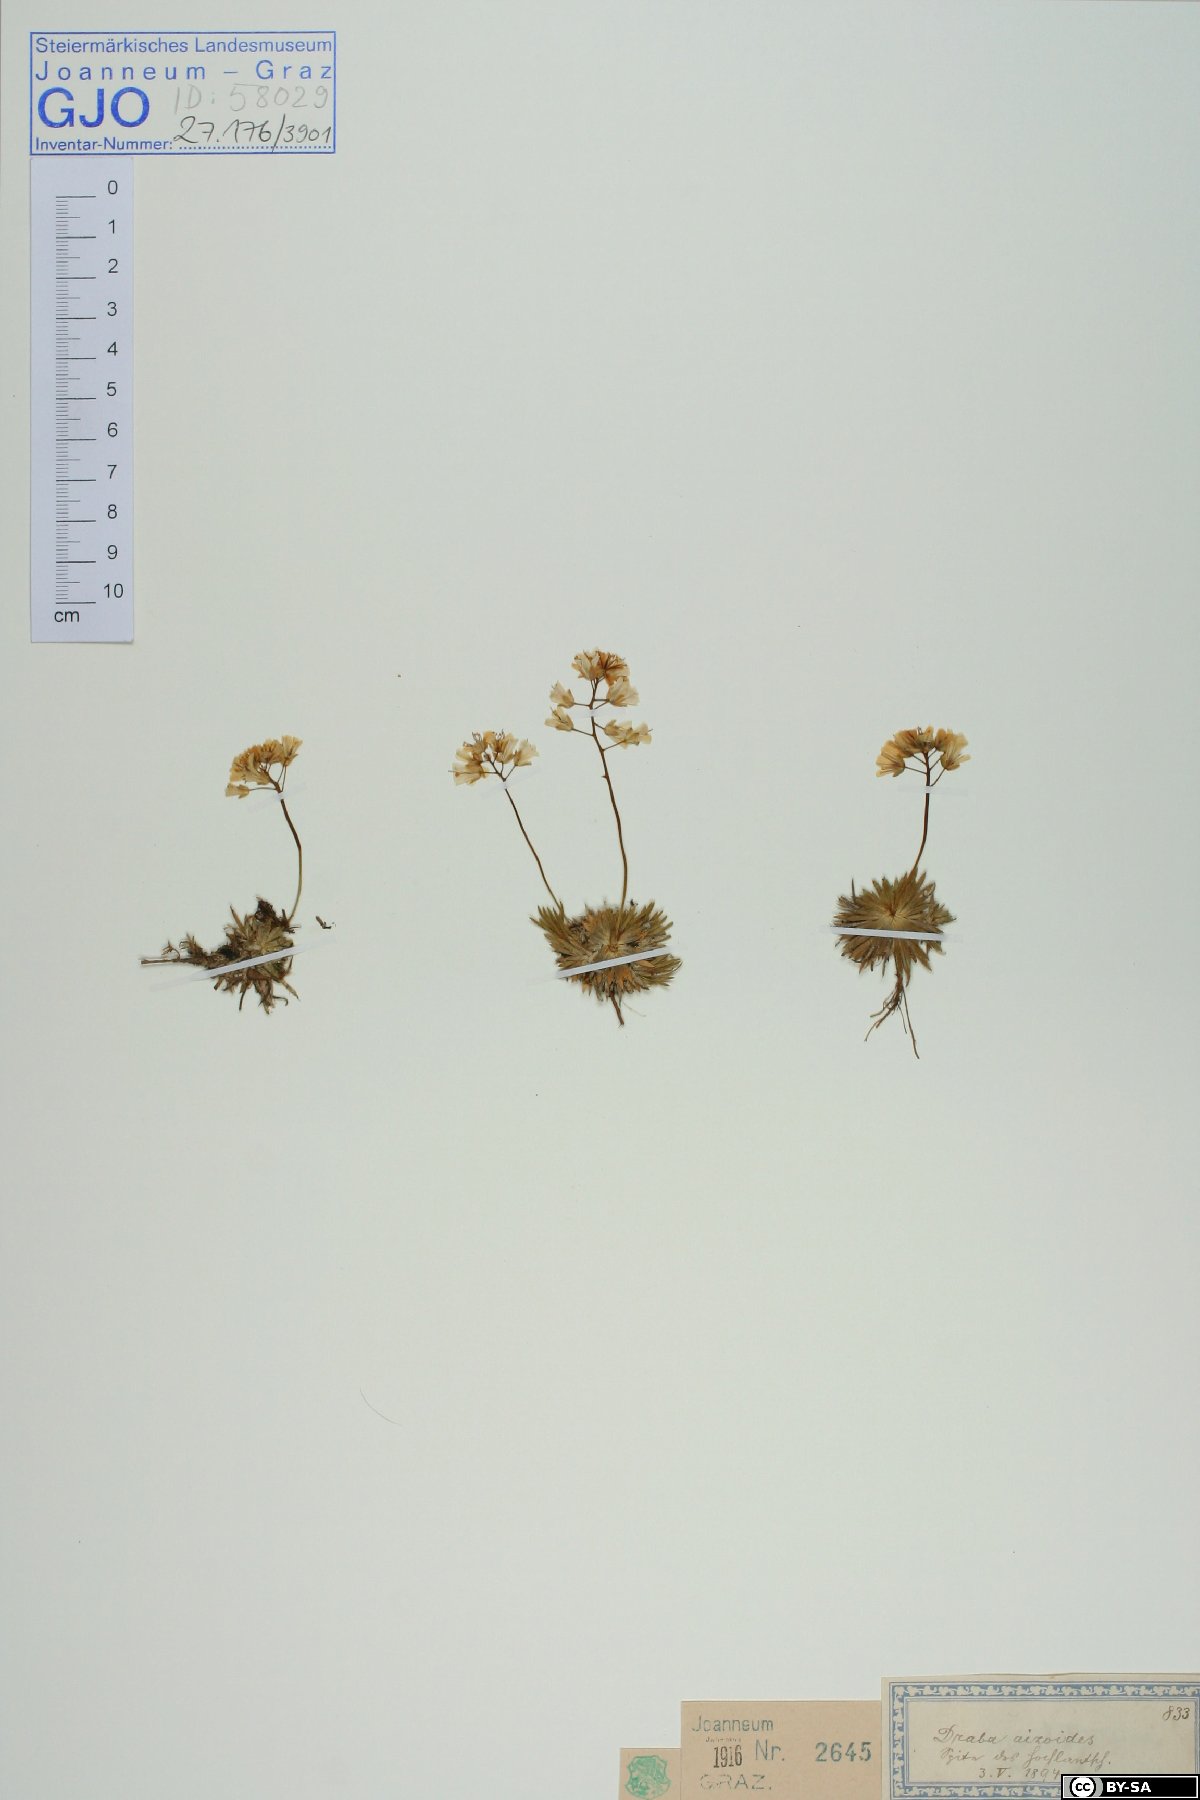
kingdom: Plantae
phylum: Tracheophyta
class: Magnoliopsida
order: Brassicales
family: Brassicaceae
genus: Draba
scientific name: Draba aizoides
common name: Yellow whitlowgrass
